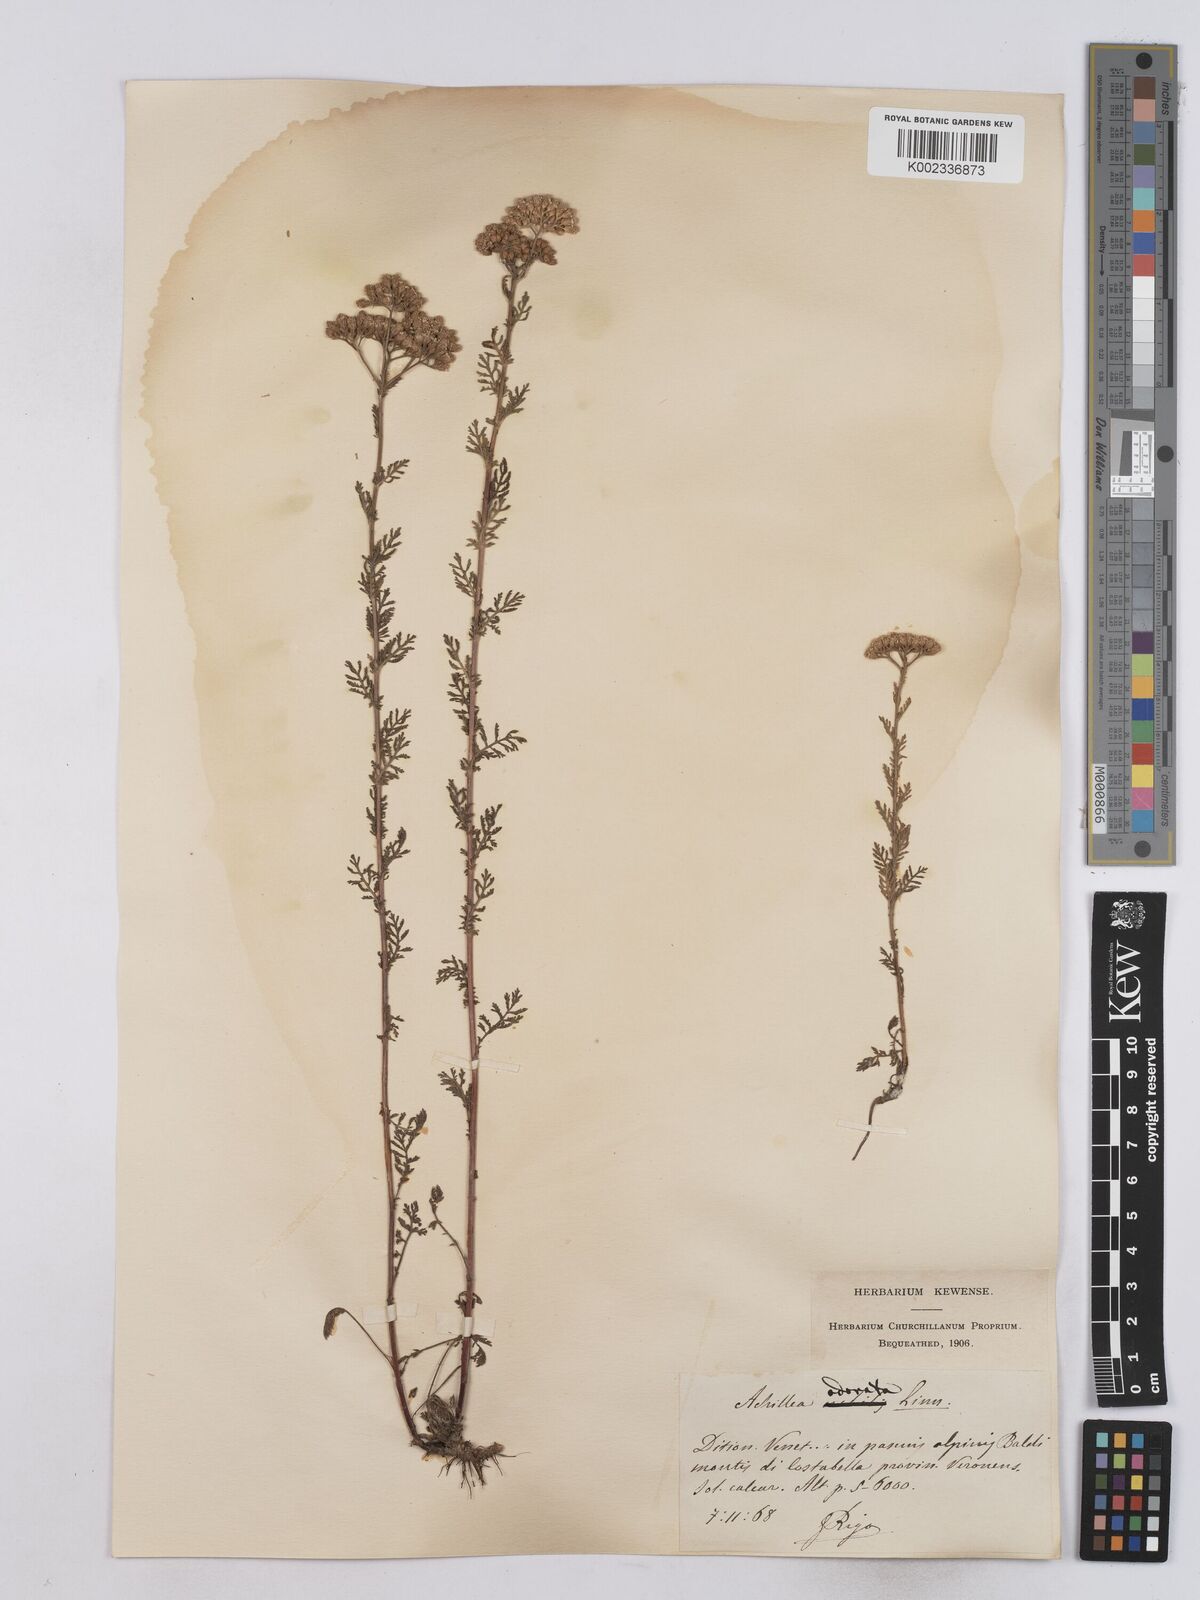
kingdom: Plantae
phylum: Tracheophyta
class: Magnoliopsida
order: Asterales
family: Asteraceae
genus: Achillea
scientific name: Achillea odorata
